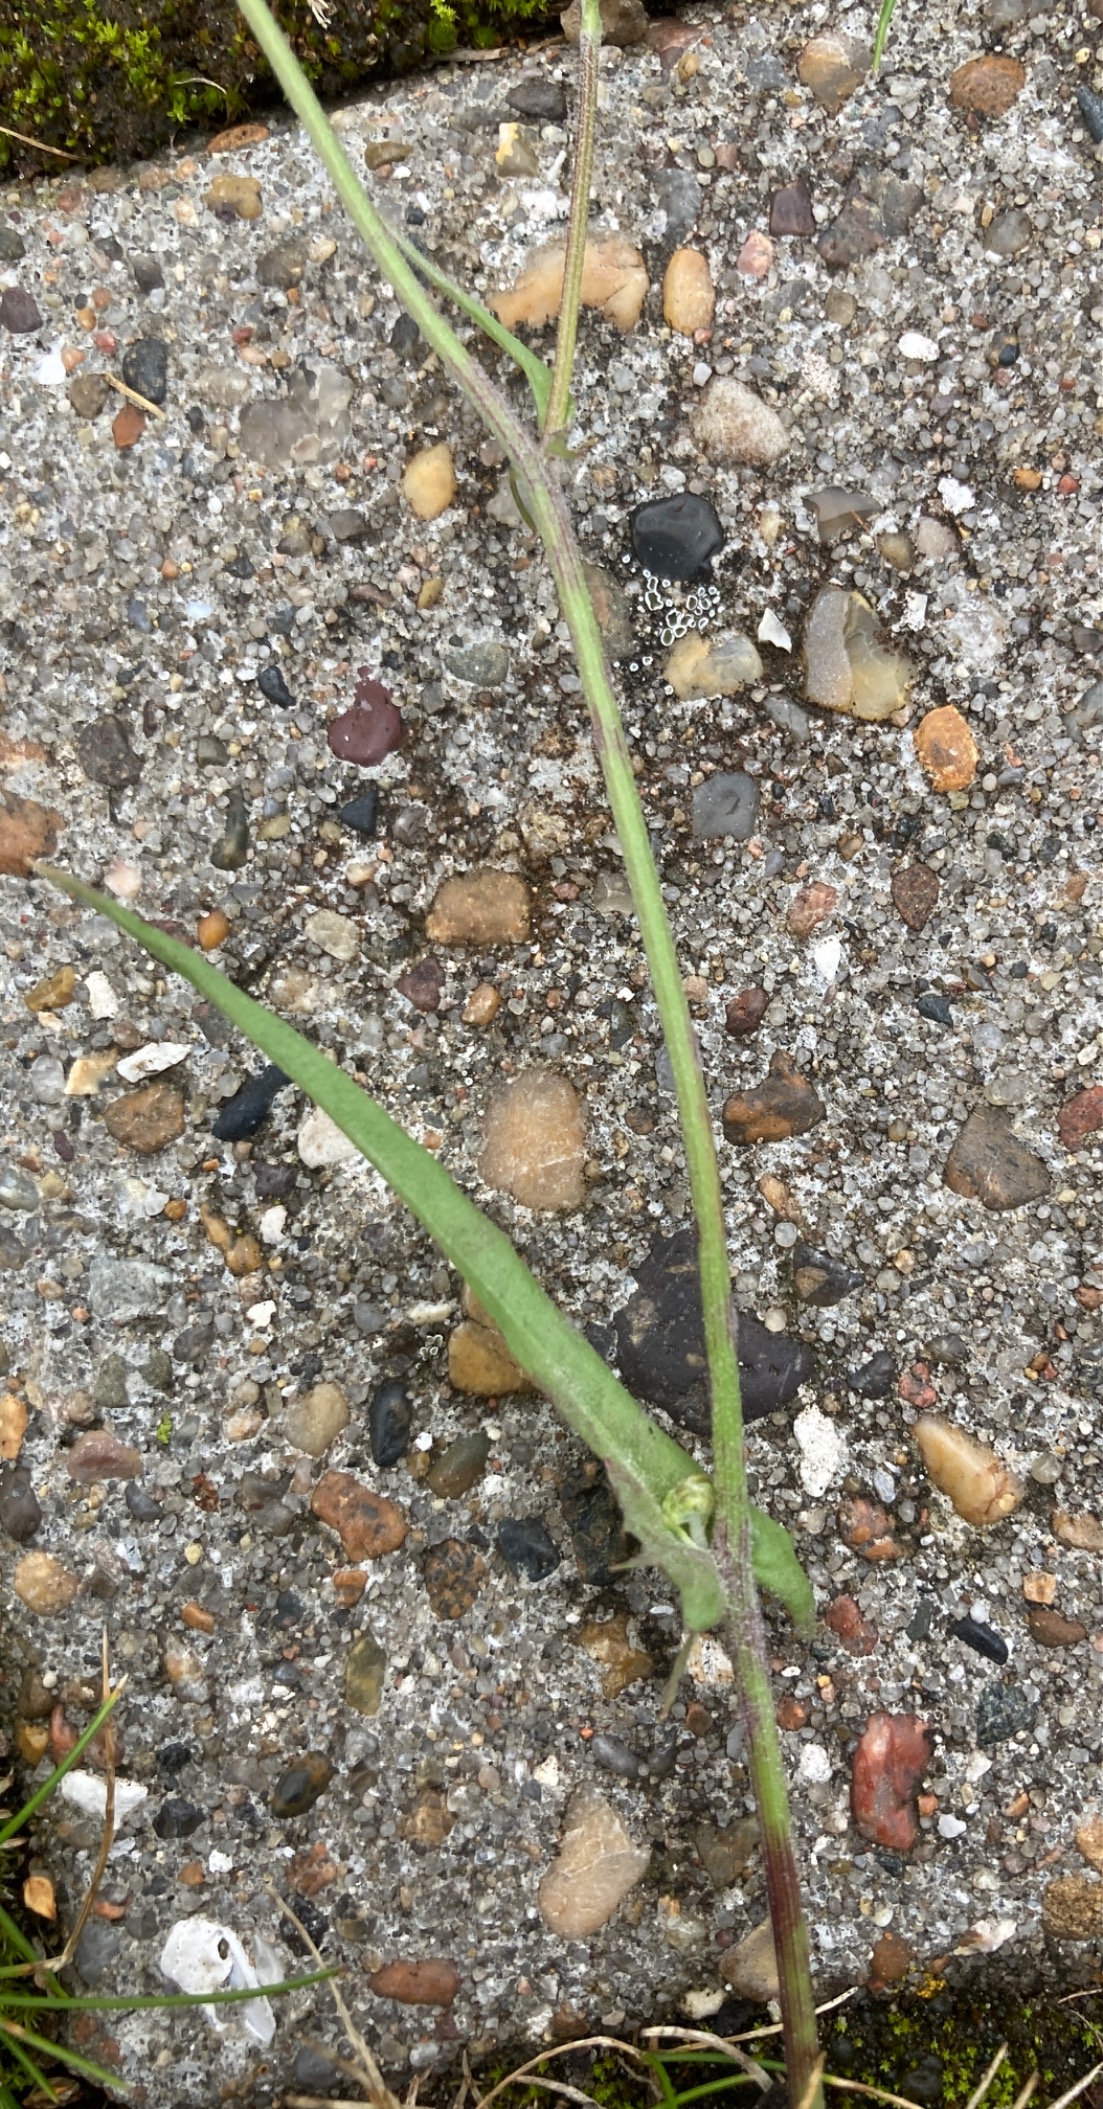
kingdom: Plantae
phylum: Tracheophyta
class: Magnoliopsida
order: Asterales
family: Asteraceae
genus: Crepis
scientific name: Crepis capillaris
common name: Grøn høgeskæg
